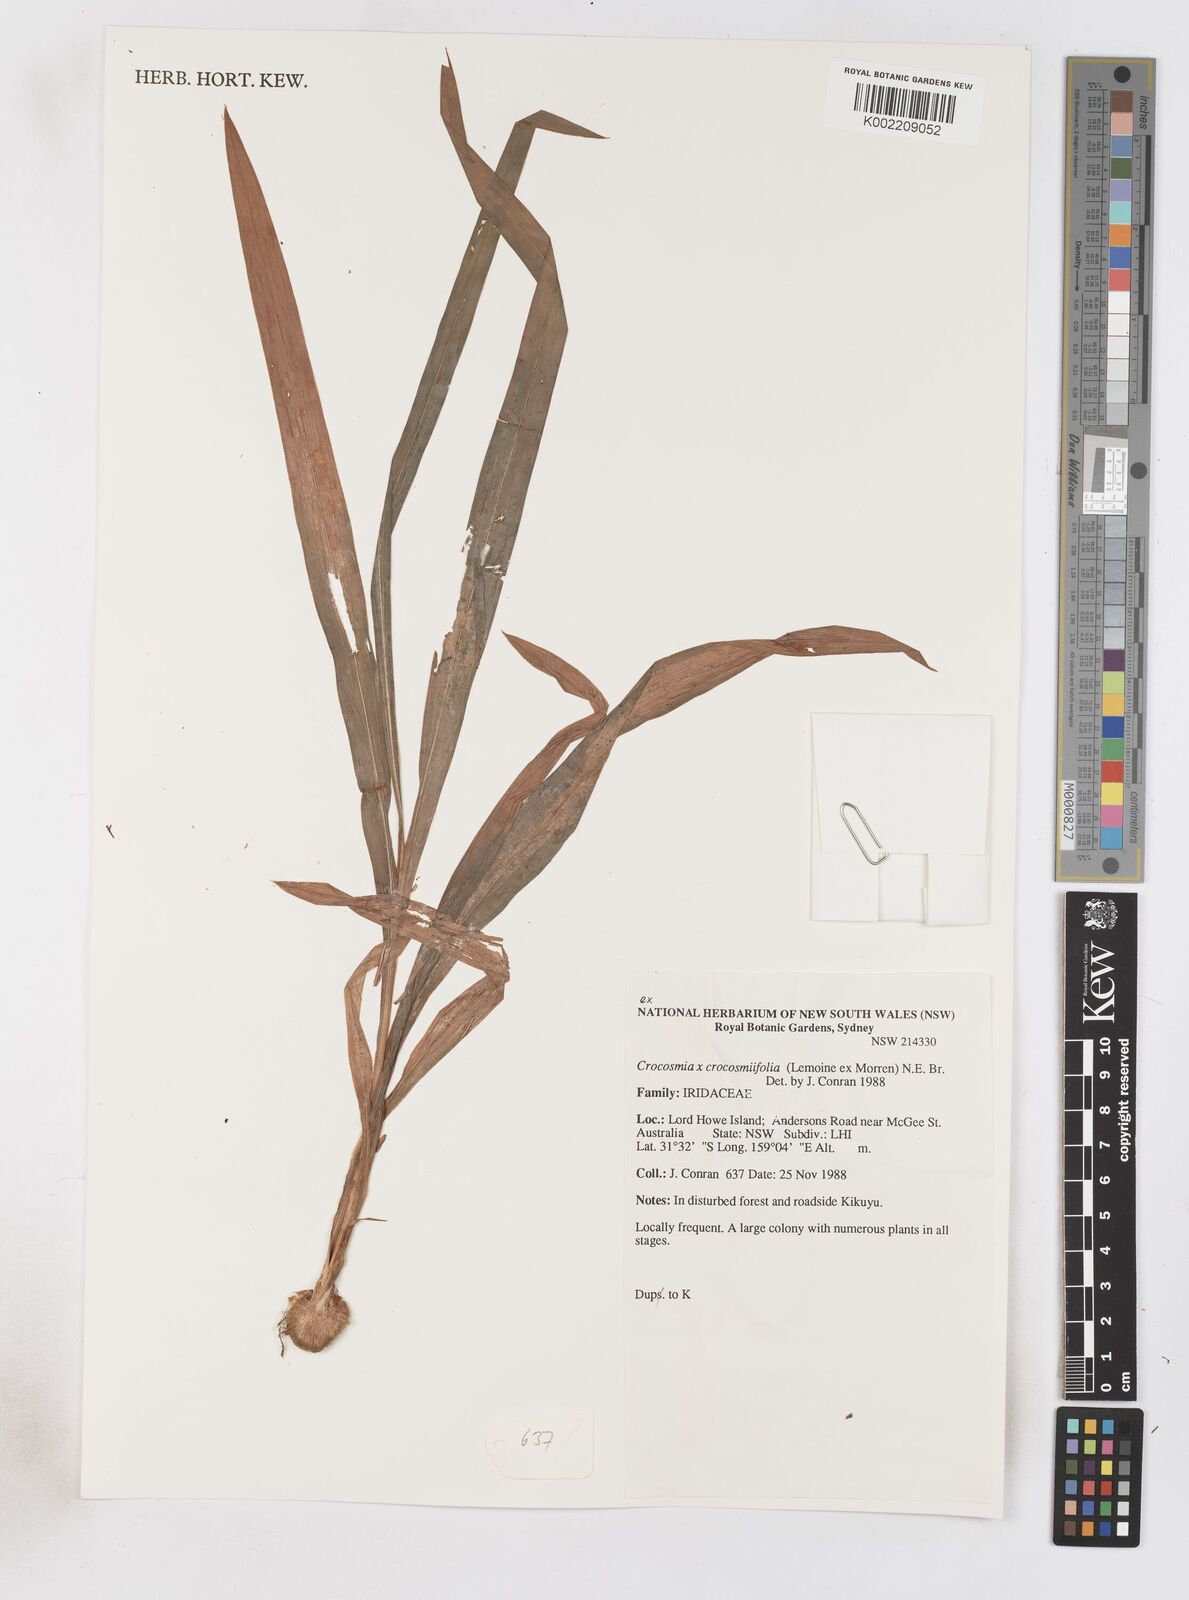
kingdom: Plantae
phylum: Tracheophyta
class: Liliopsida
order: Asparagales
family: Iridaceae
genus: Crocosmia
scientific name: Crocosmia crocosmiiflora
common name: Montbretia
